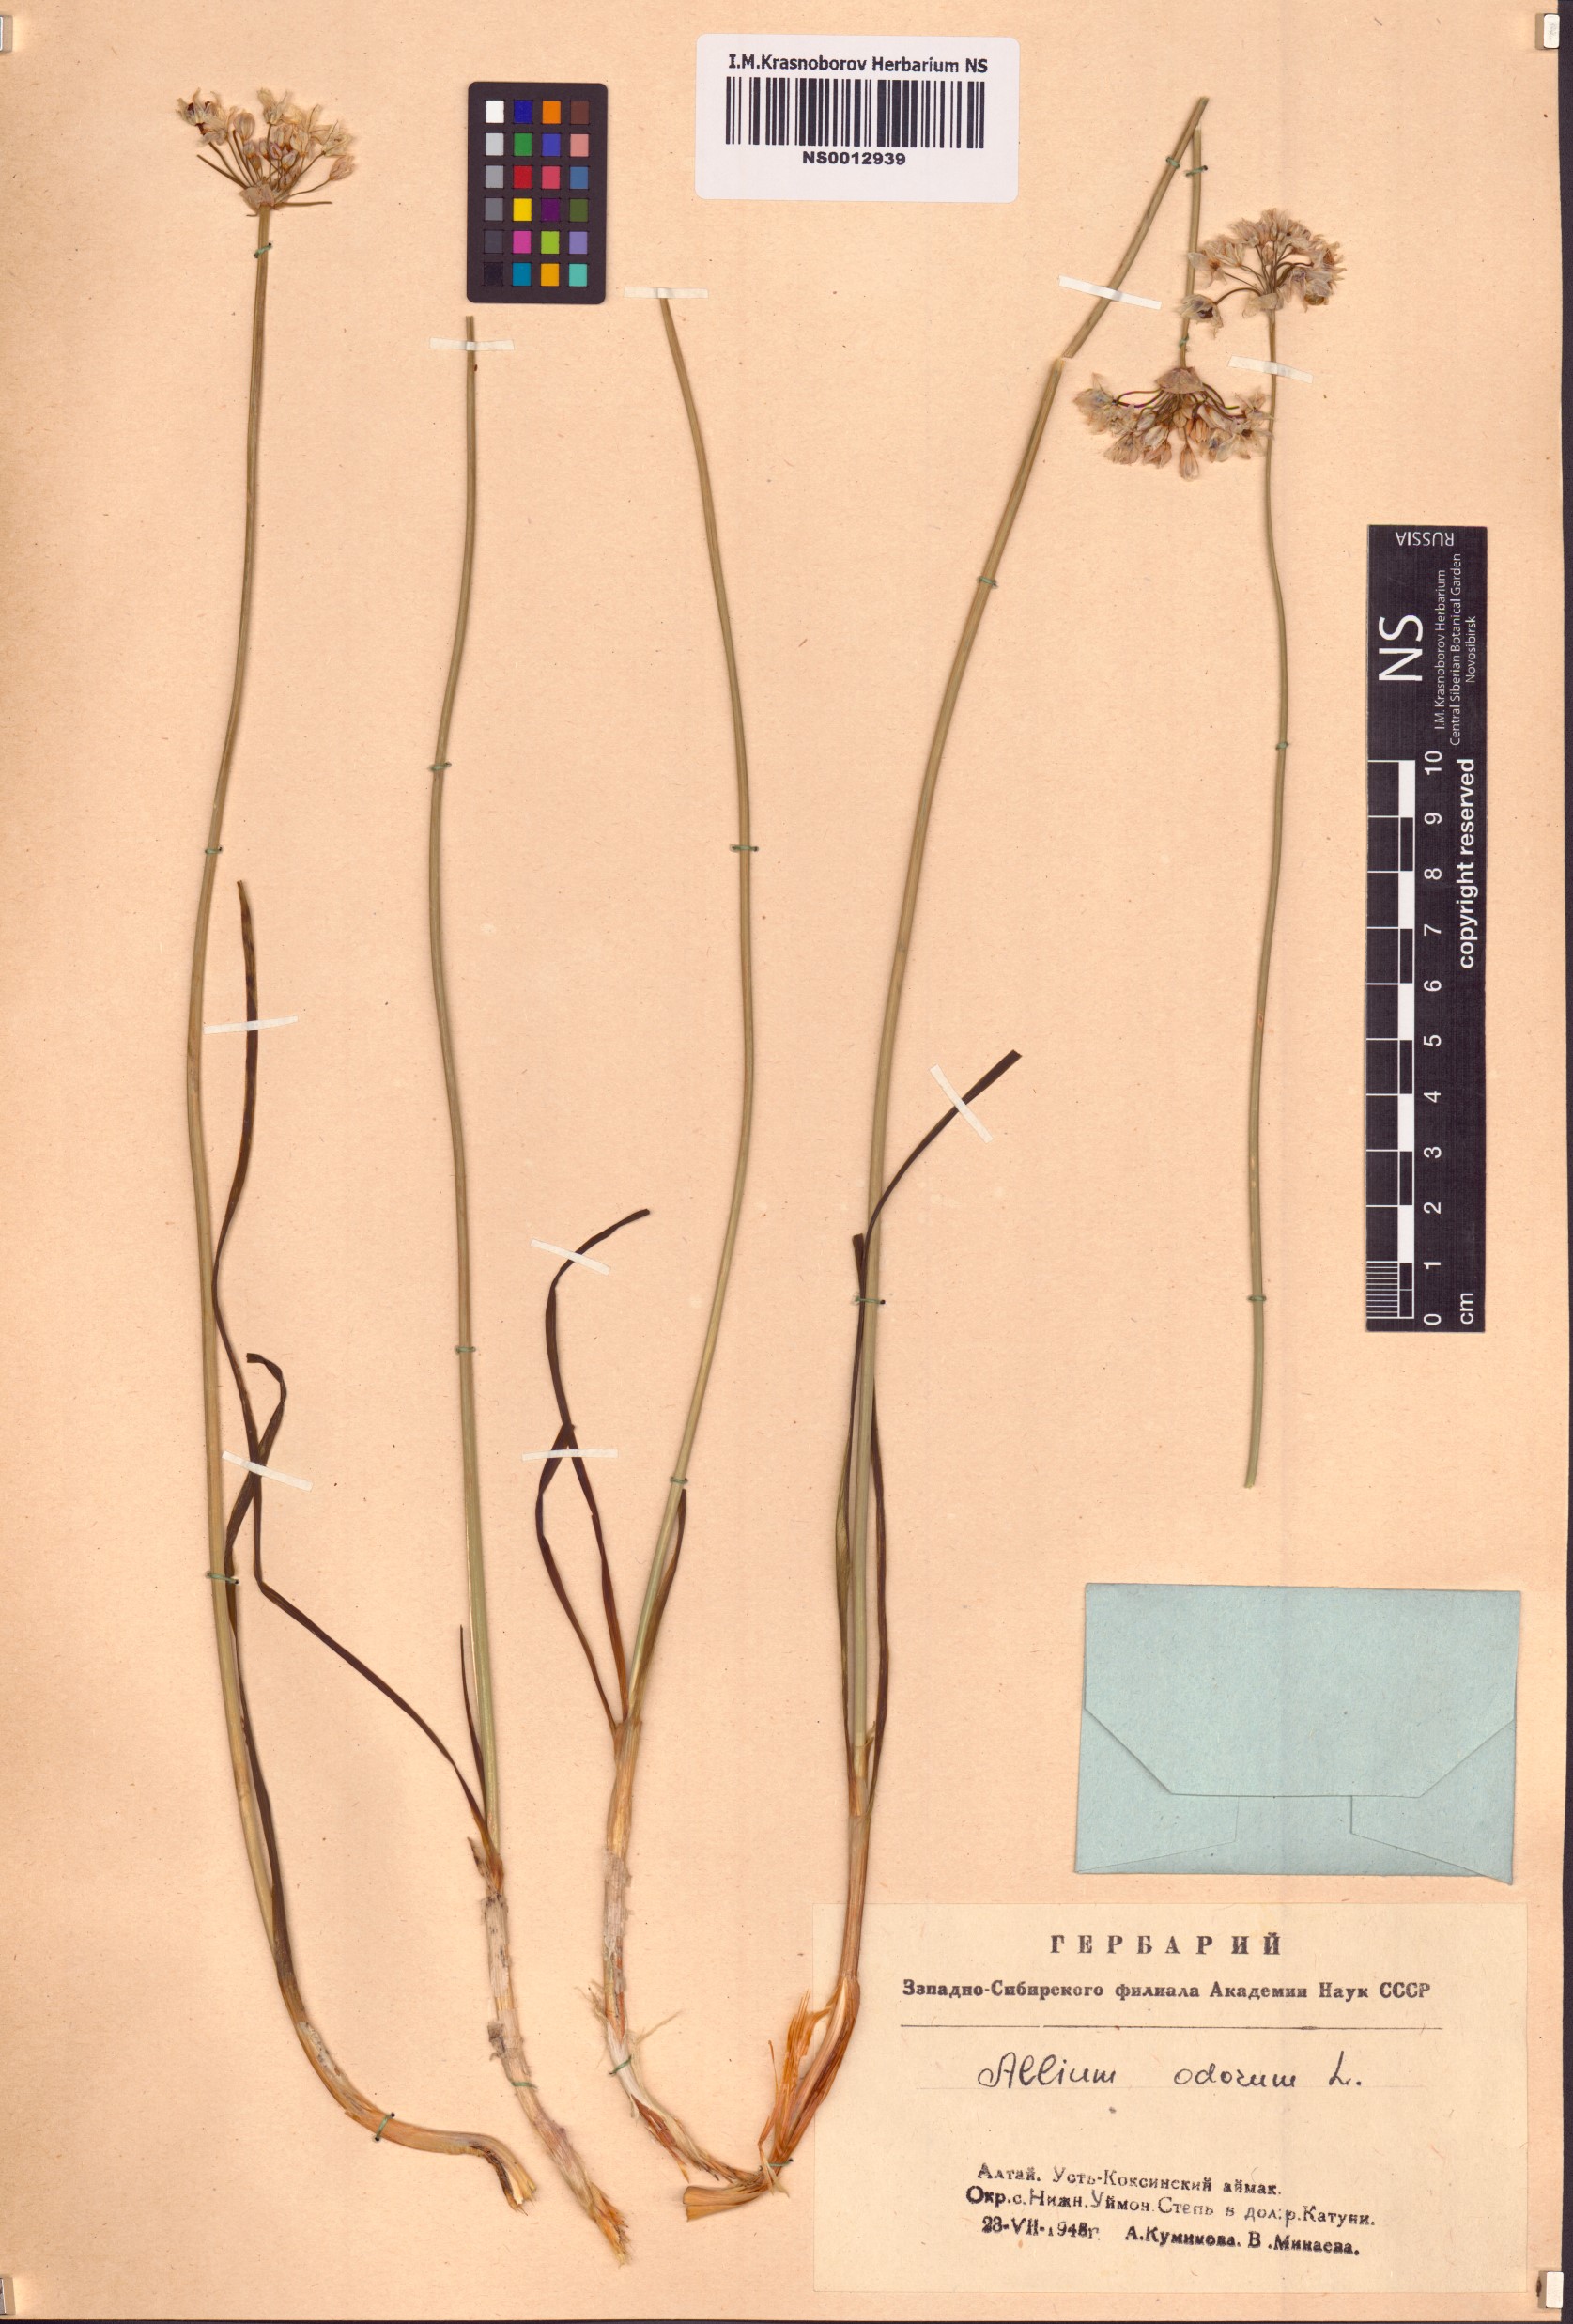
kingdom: Plantae
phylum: Tracheophyta
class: Liliopsida
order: Asparagales
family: Amaryllidaceae
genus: Allium
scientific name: Allium ramosum
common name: Fragrant garlic
